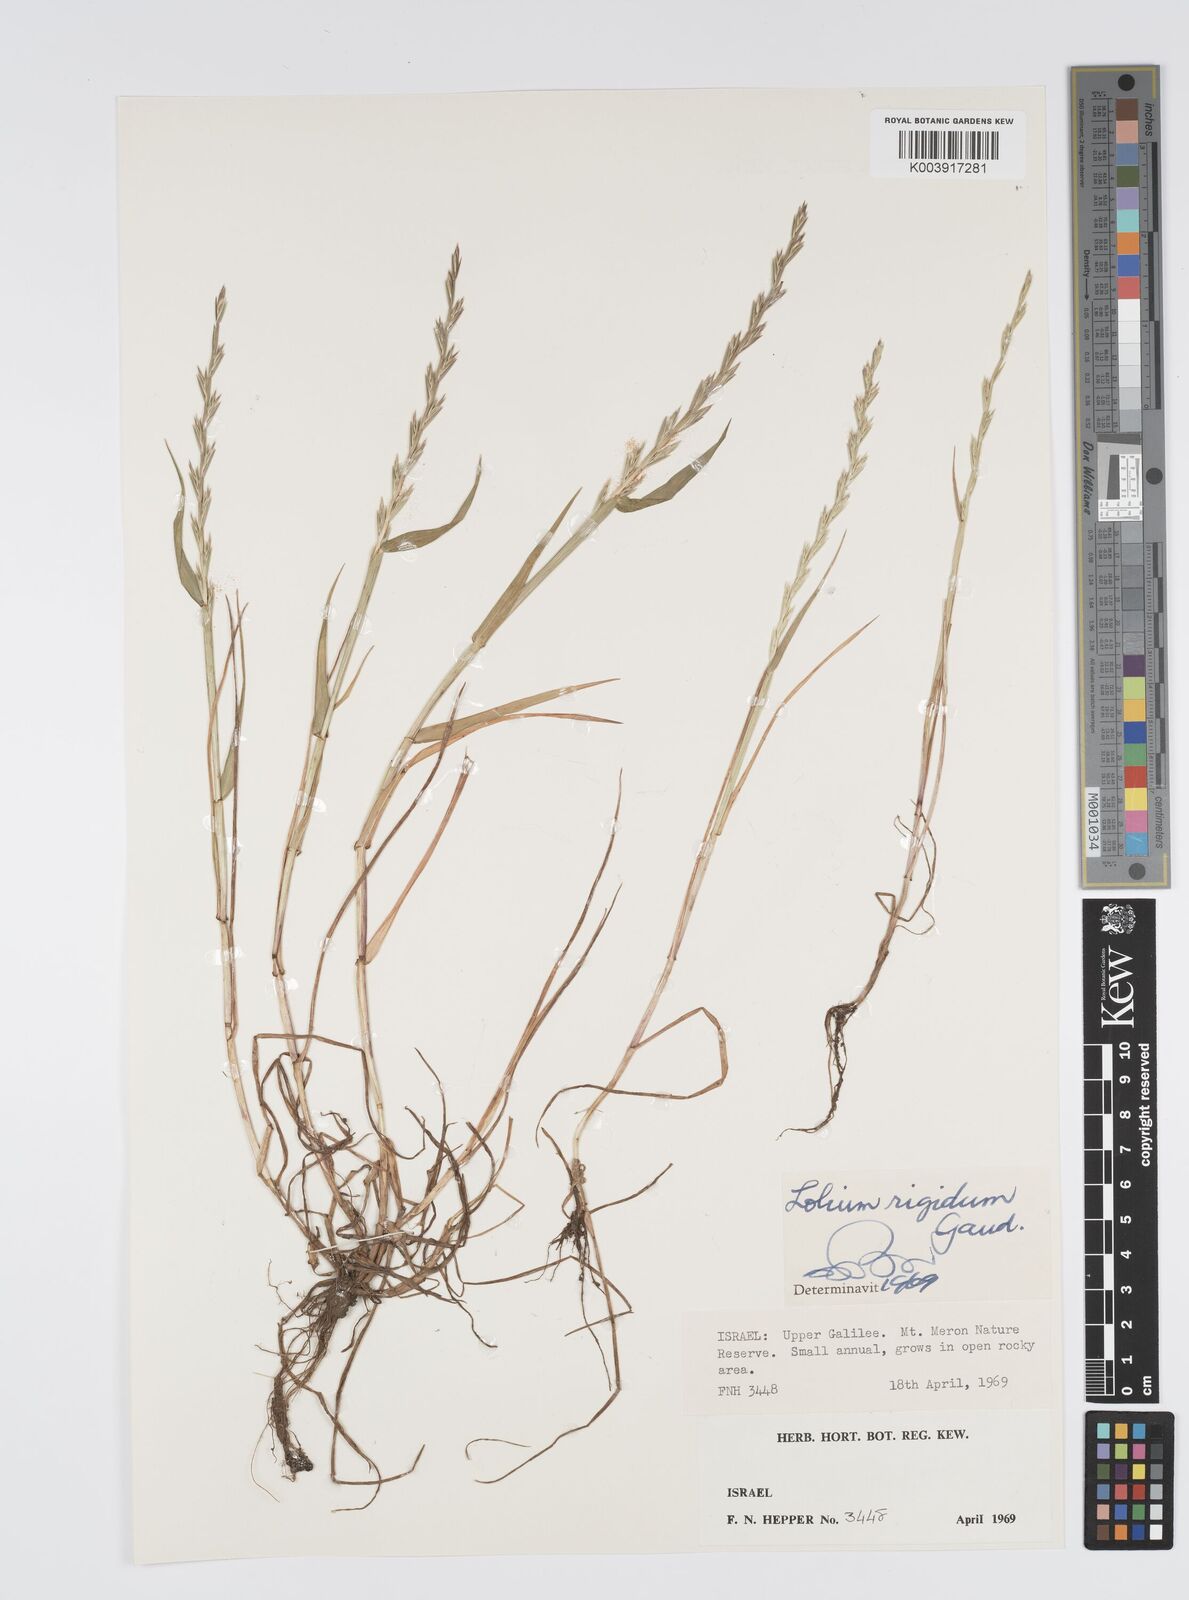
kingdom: Plantae
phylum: Tracheophyta
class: Liliopsida
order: Poales
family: Poaceae
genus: Lolium
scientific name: Lolium rigidum
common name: Wimmera ryegrass
